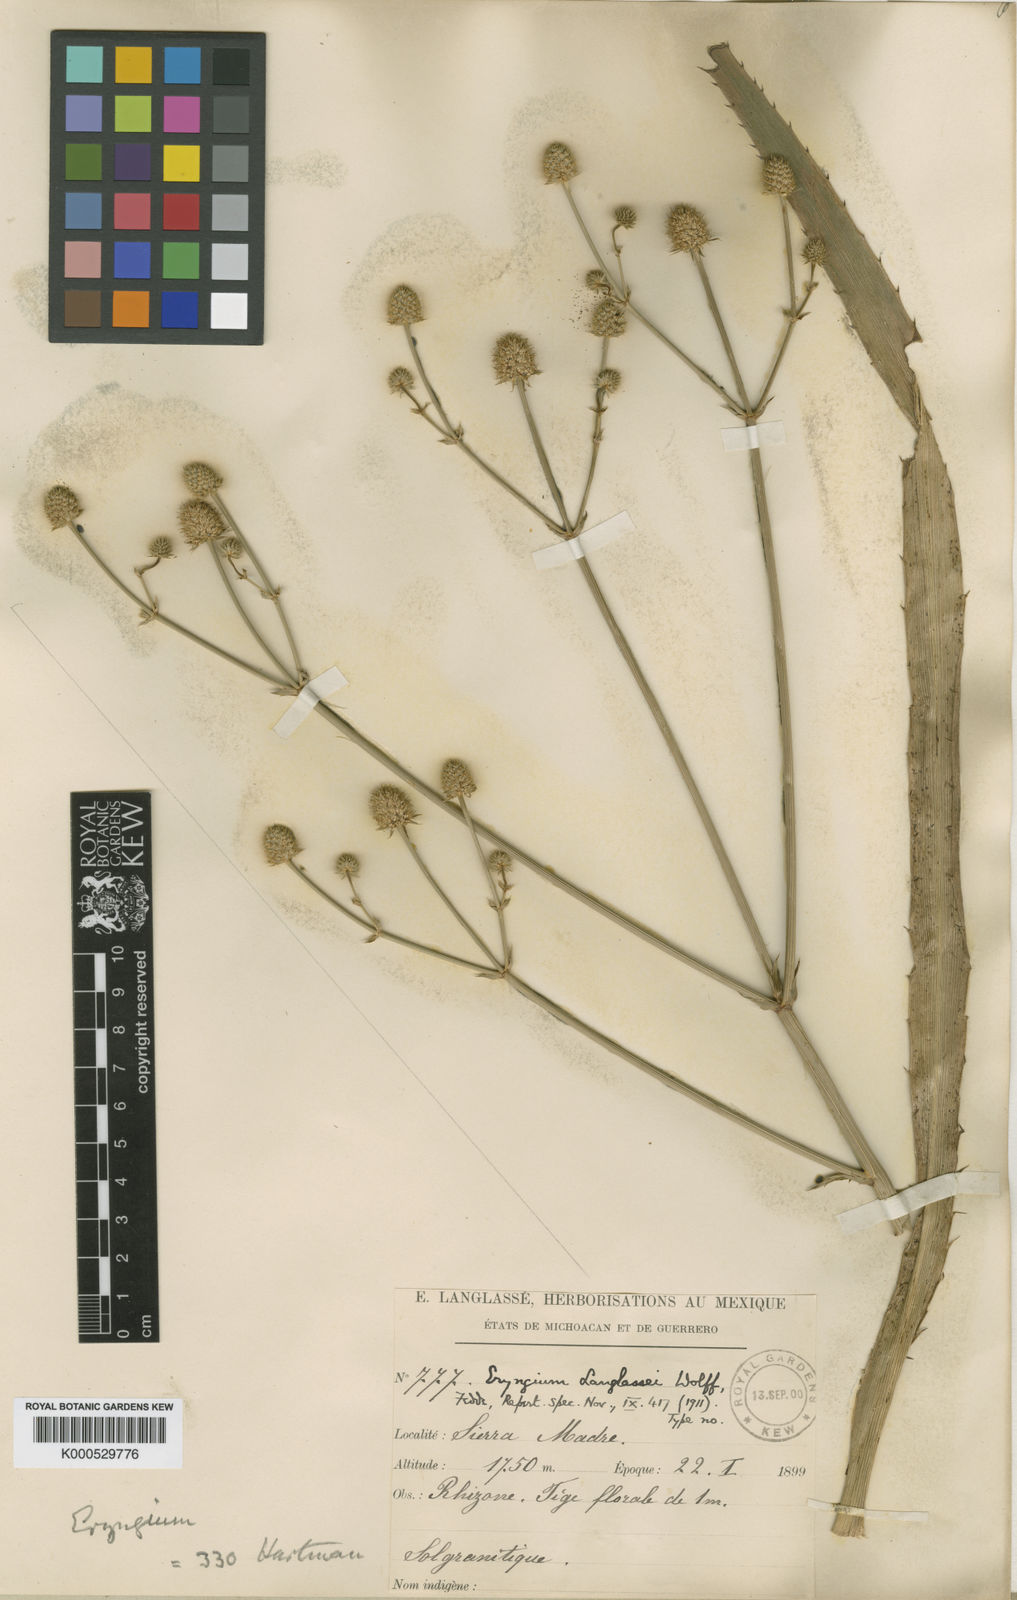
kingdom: Plantae
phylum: Tracheophyta
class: Magnoliopsida
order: Apiales
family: Apiaceae
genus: Eryngium
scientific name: Eryngium longifolium
